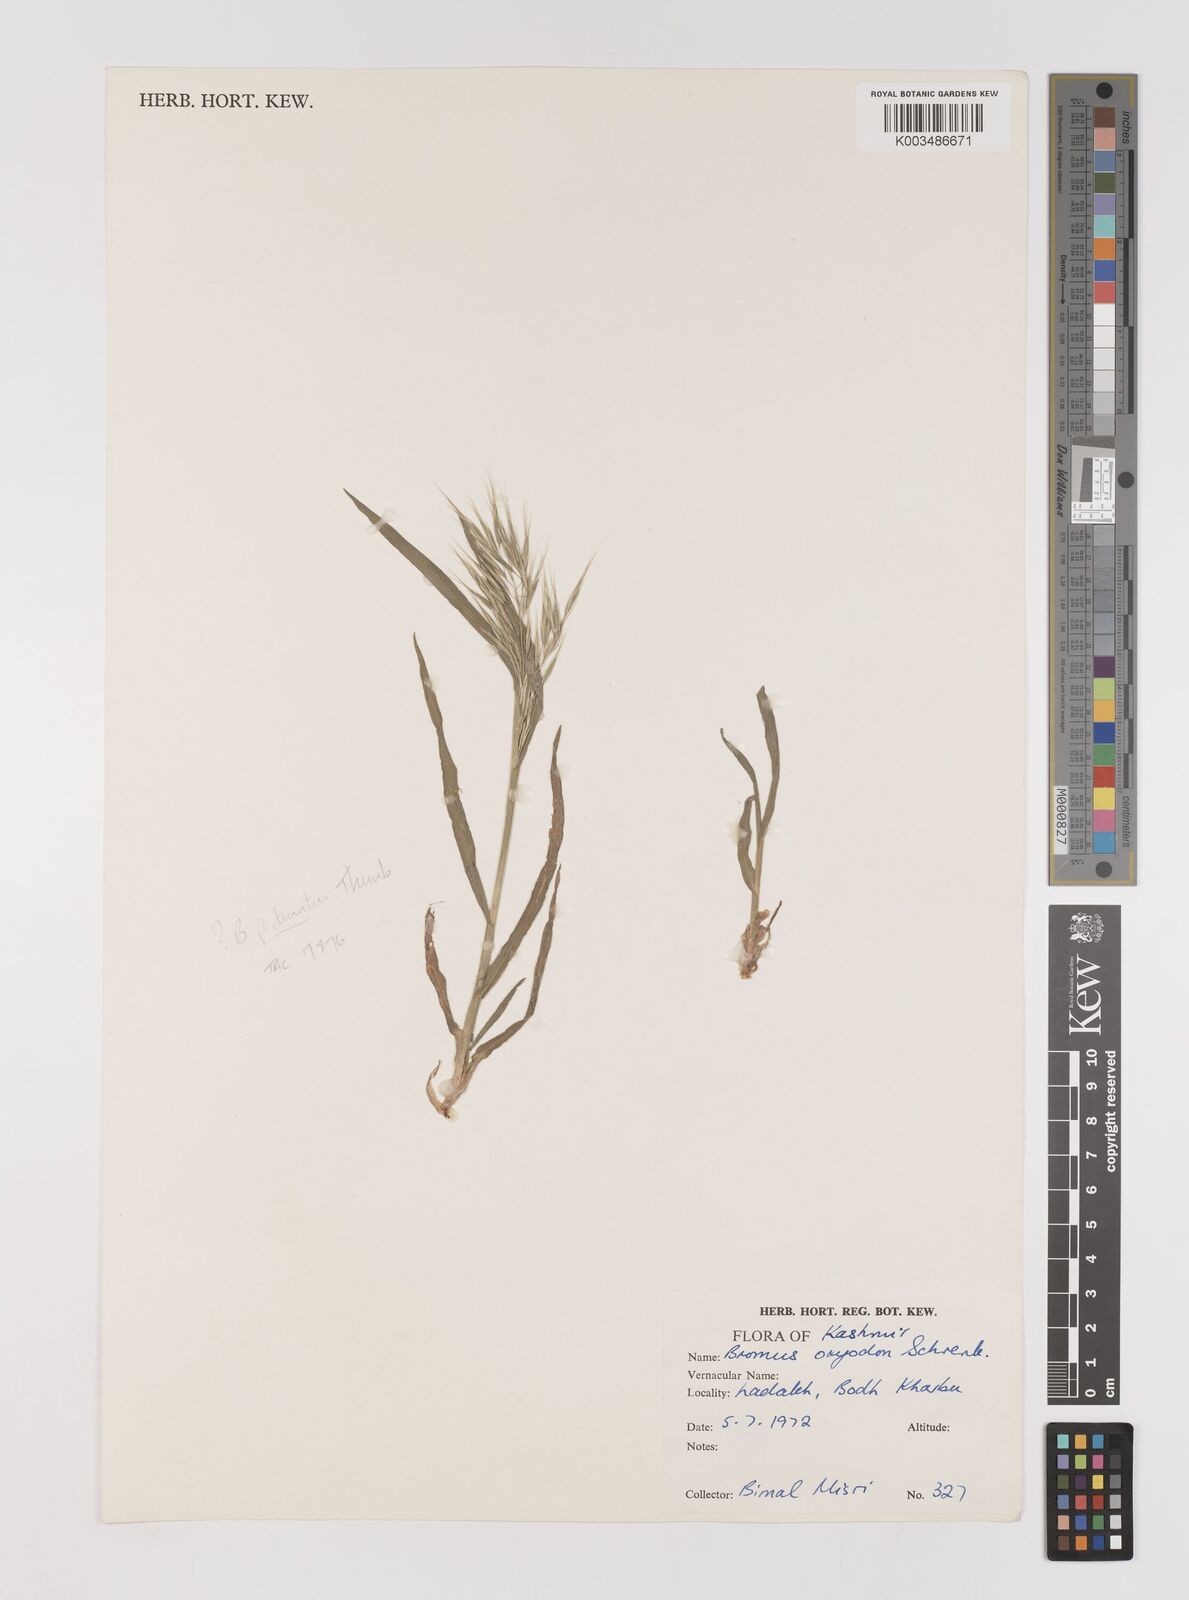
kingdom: Plantae
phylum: Tracheophyta
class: Liliopsida
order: Poales
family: Poaceae
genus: Bromus
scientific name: Bromus pectinatus
